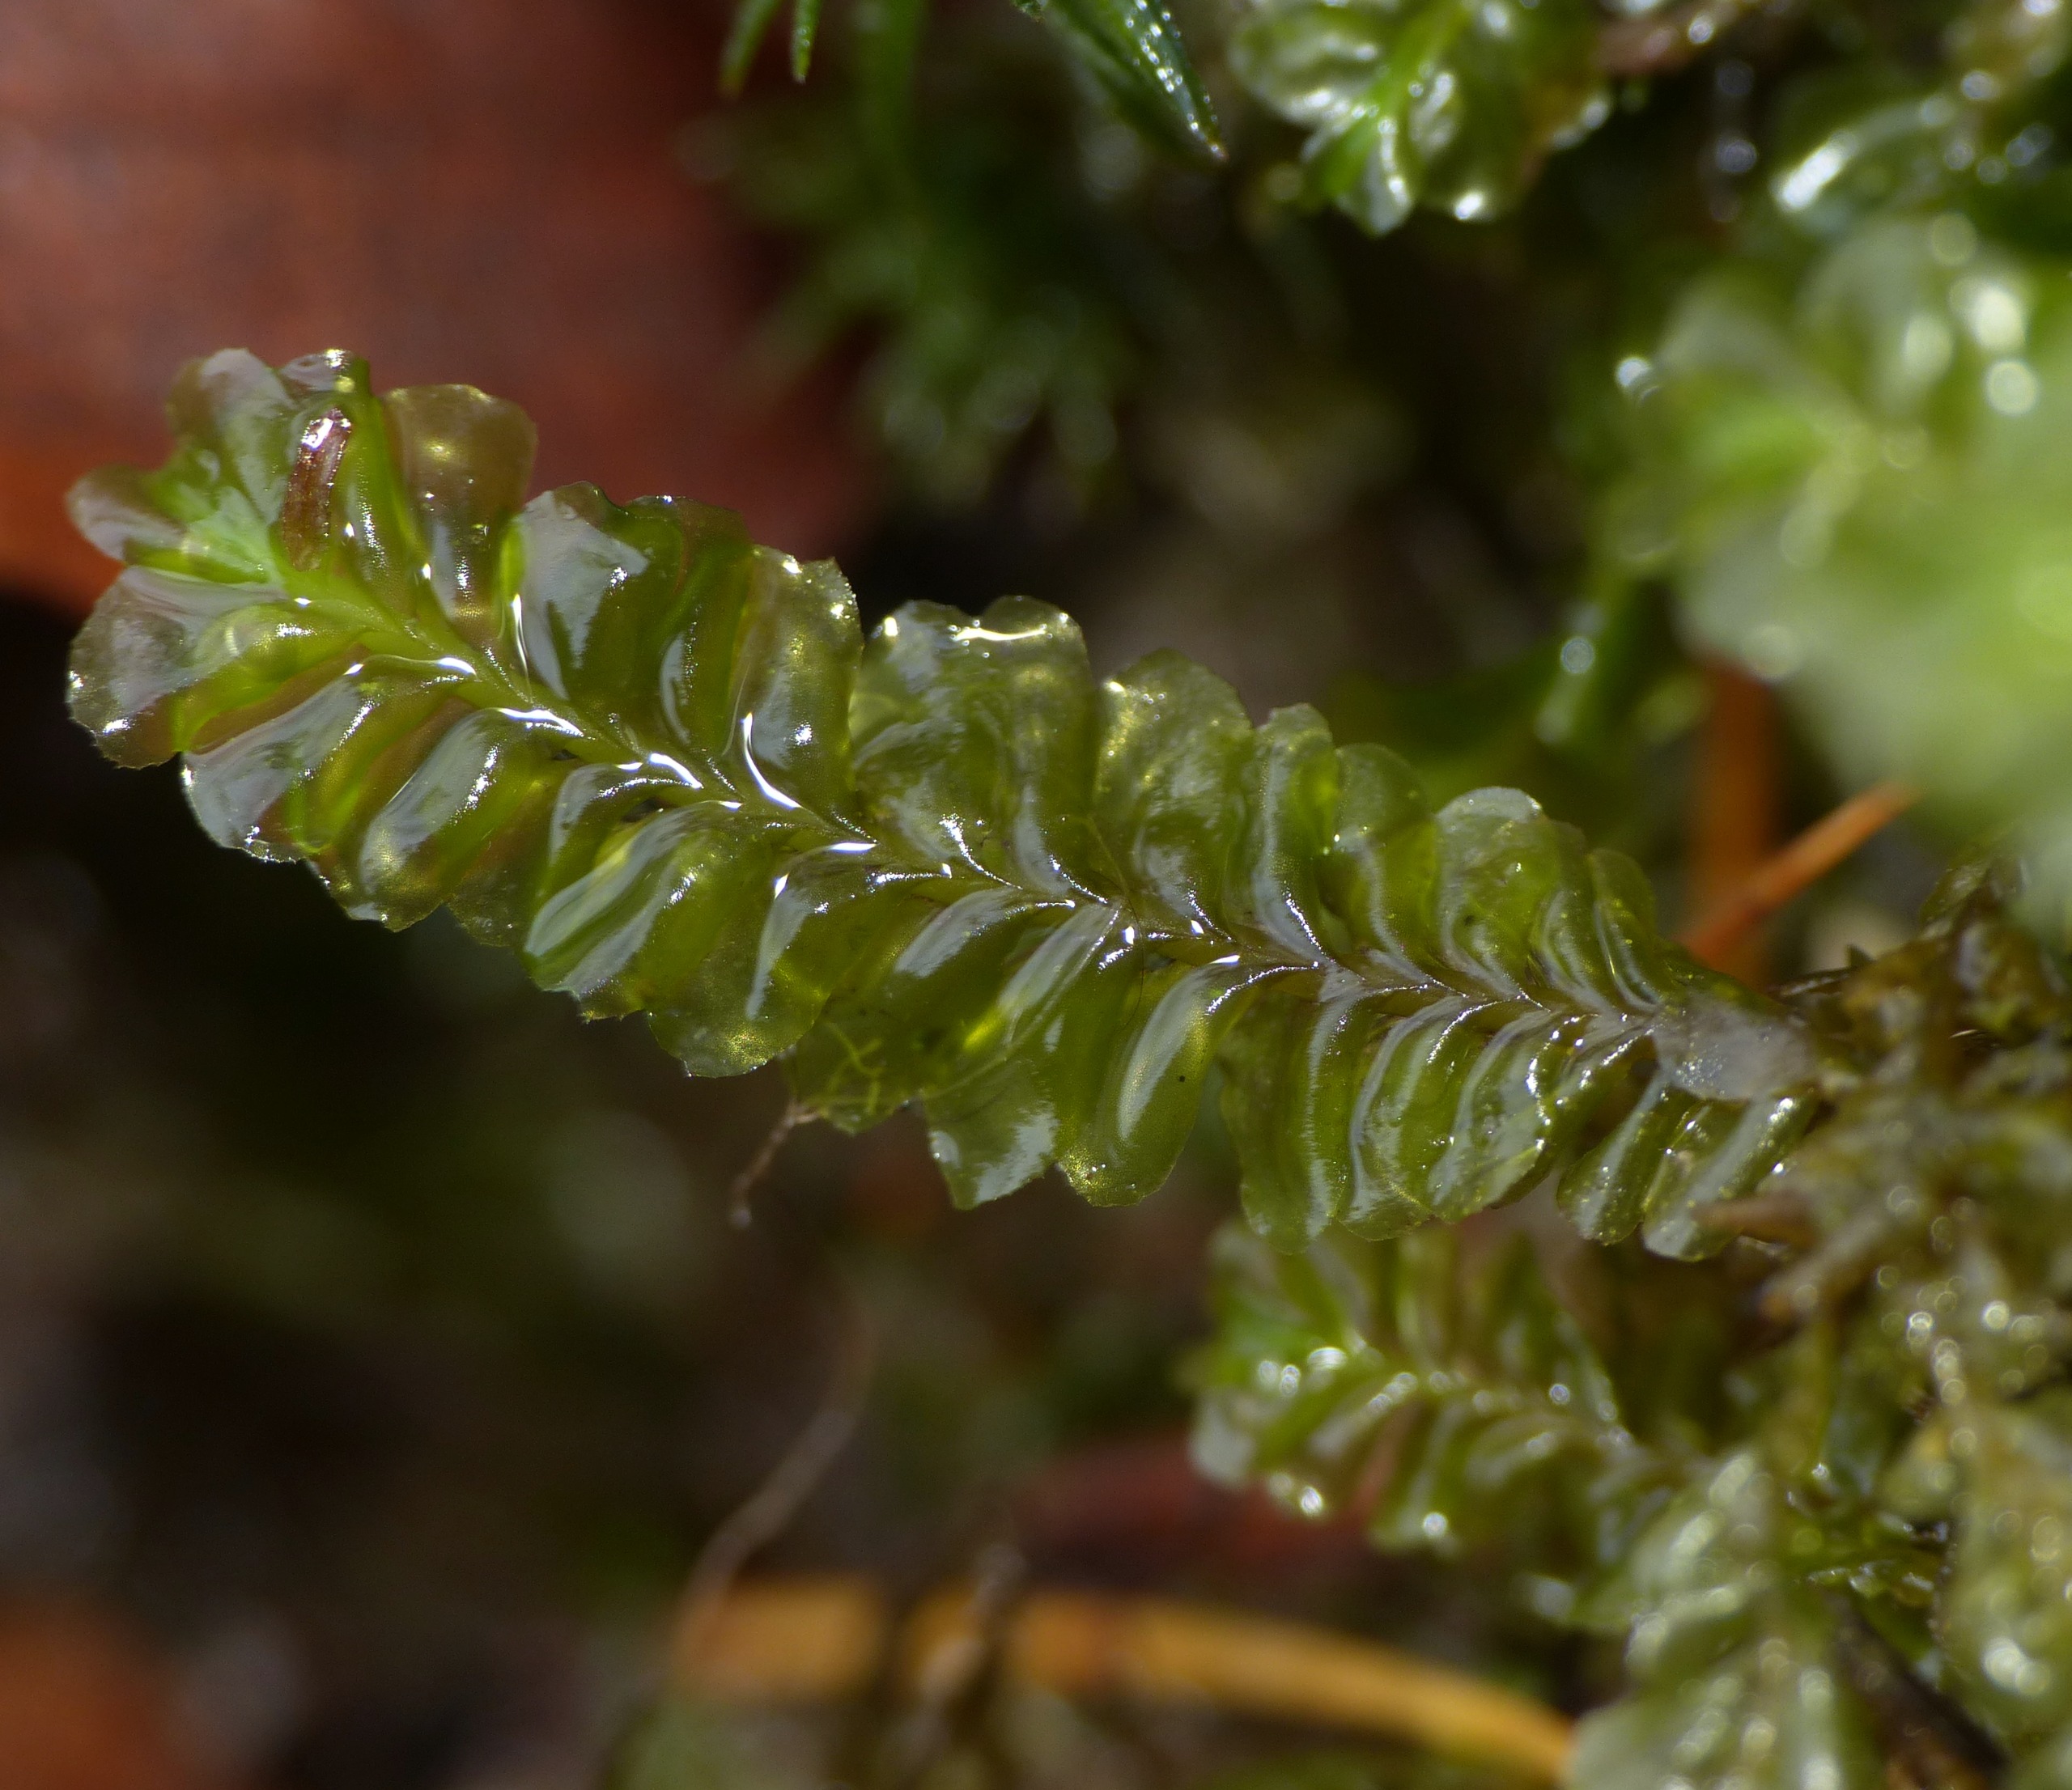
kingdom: Plantae
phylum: Marchantiophyta
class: Jungermanniopsida
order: Jungermanniales
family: Plagiochilaceae
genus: Plagiochila
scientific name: Plagiochila asplenioides
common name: Radeløv-hindeblad
